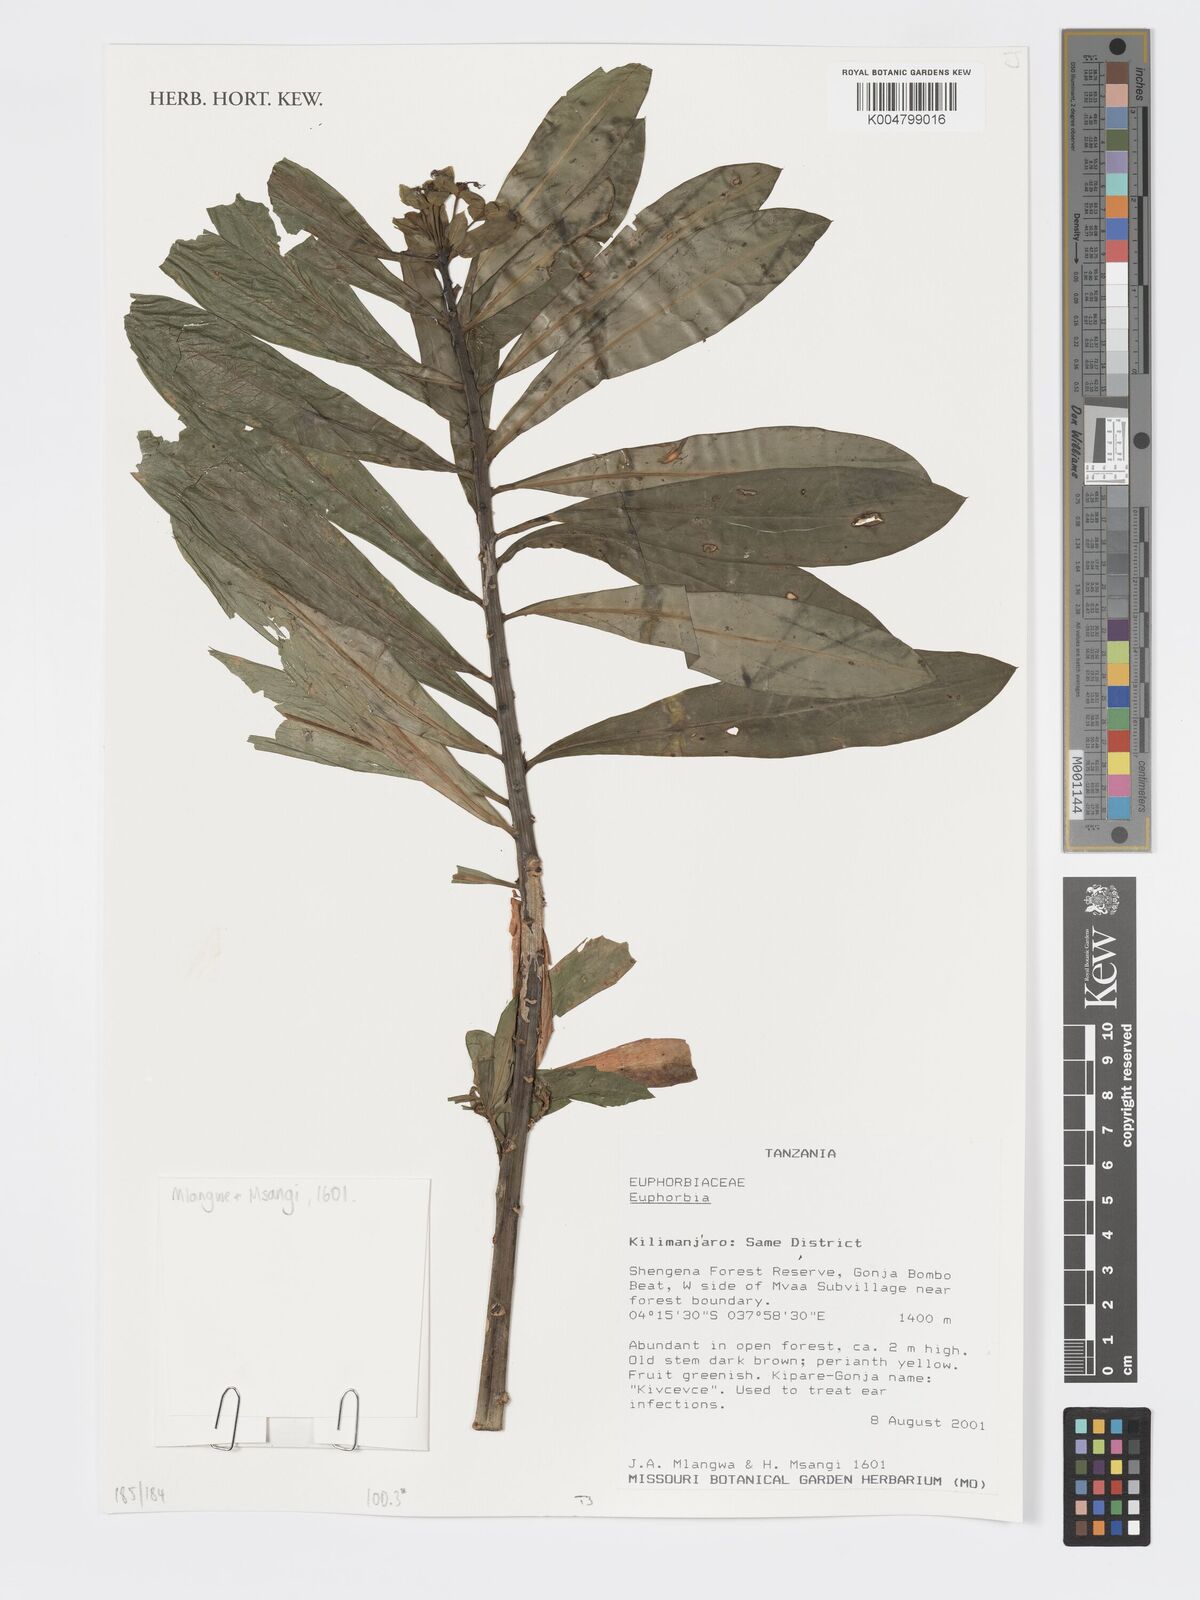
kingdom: Plantae
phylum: Tracheophyta
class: Magnoliopsida
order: Malpighiales
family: Euphorbiaceae
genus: Euphorbia
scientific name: Euphorbia
